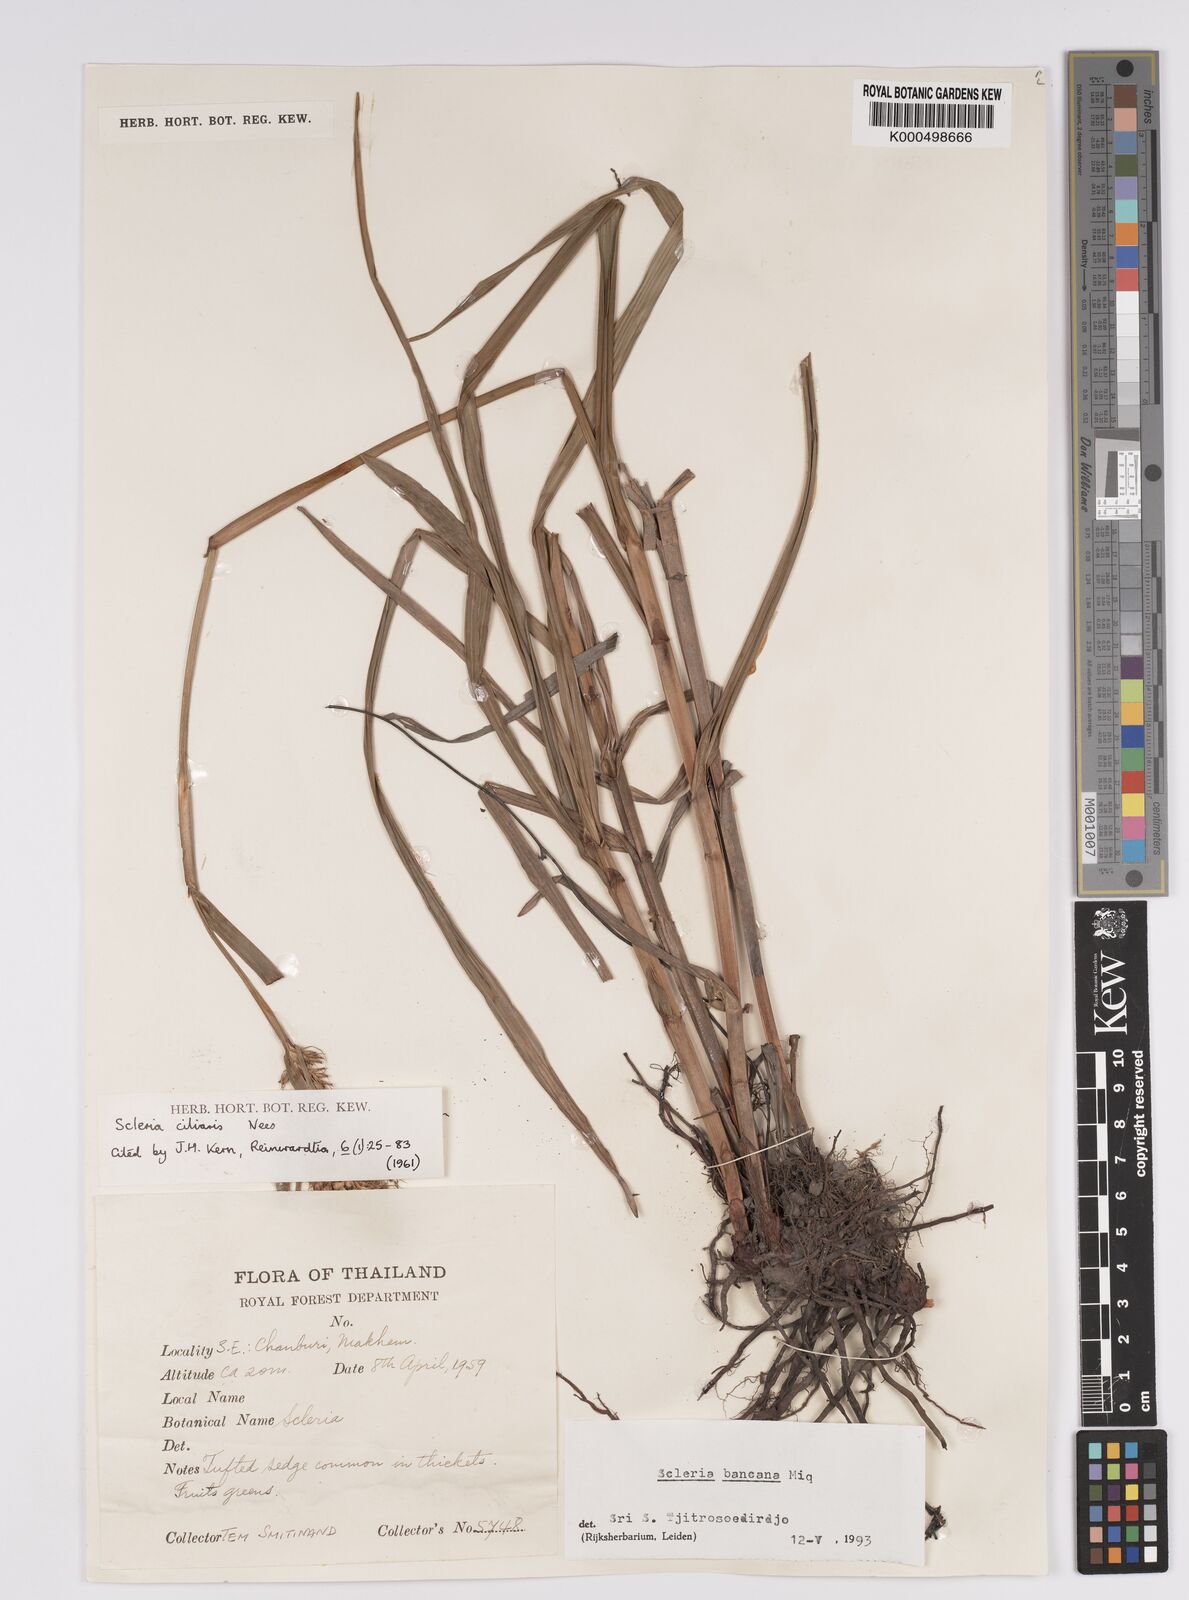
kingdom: Plantae
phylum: Tracheophyta
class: Liliopsida
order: Poales
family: Cyperaceae
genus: Scleria
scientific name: Scleria ciliaris
